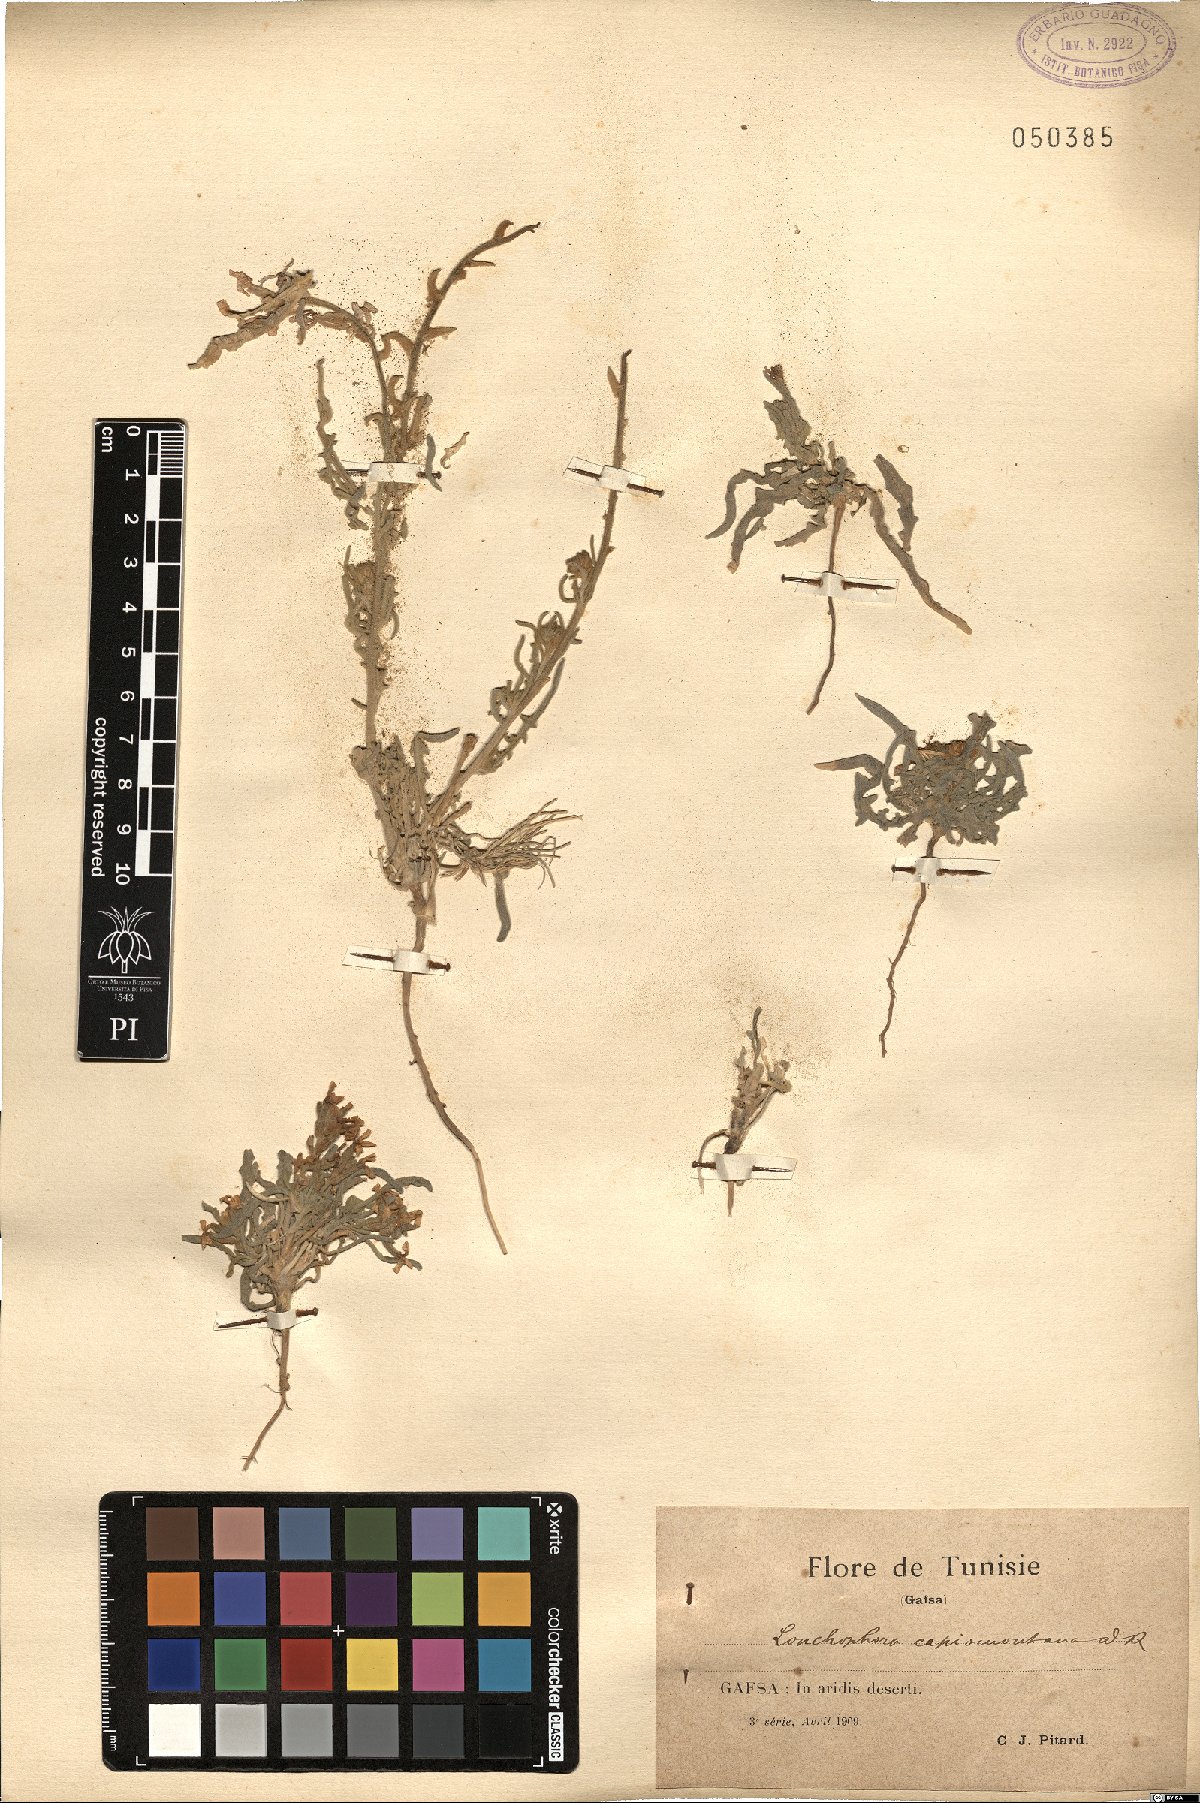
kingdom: Plantae
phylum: Tracheophyta
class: Magnoliopsida
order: Brassicales
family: Brassicaceae
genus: Matthiola
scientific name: Matthiola capiomontana
